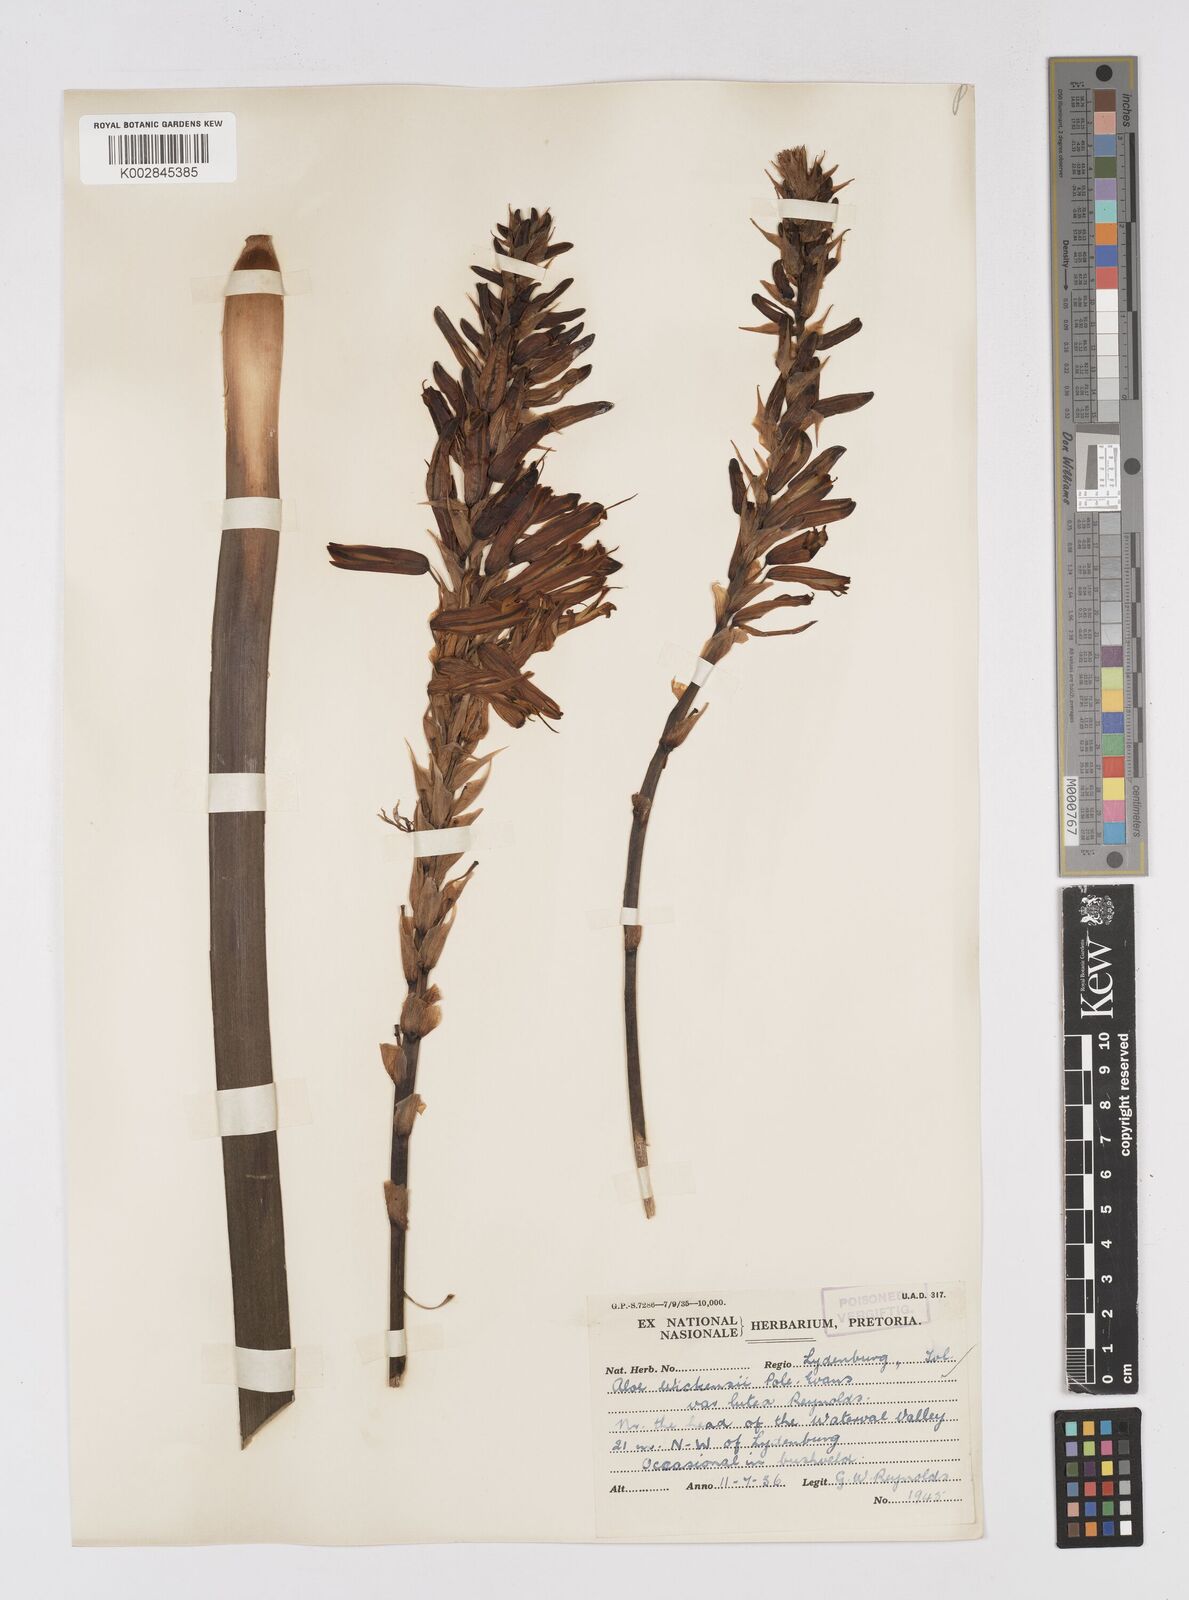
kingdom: Plantae
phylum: Tracheophyta
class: Liliopsida
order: Asparagales
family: Asphodelaceae
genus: Aloe
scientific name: Aloe cryptopoda
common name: Dr. kirk's aloe
